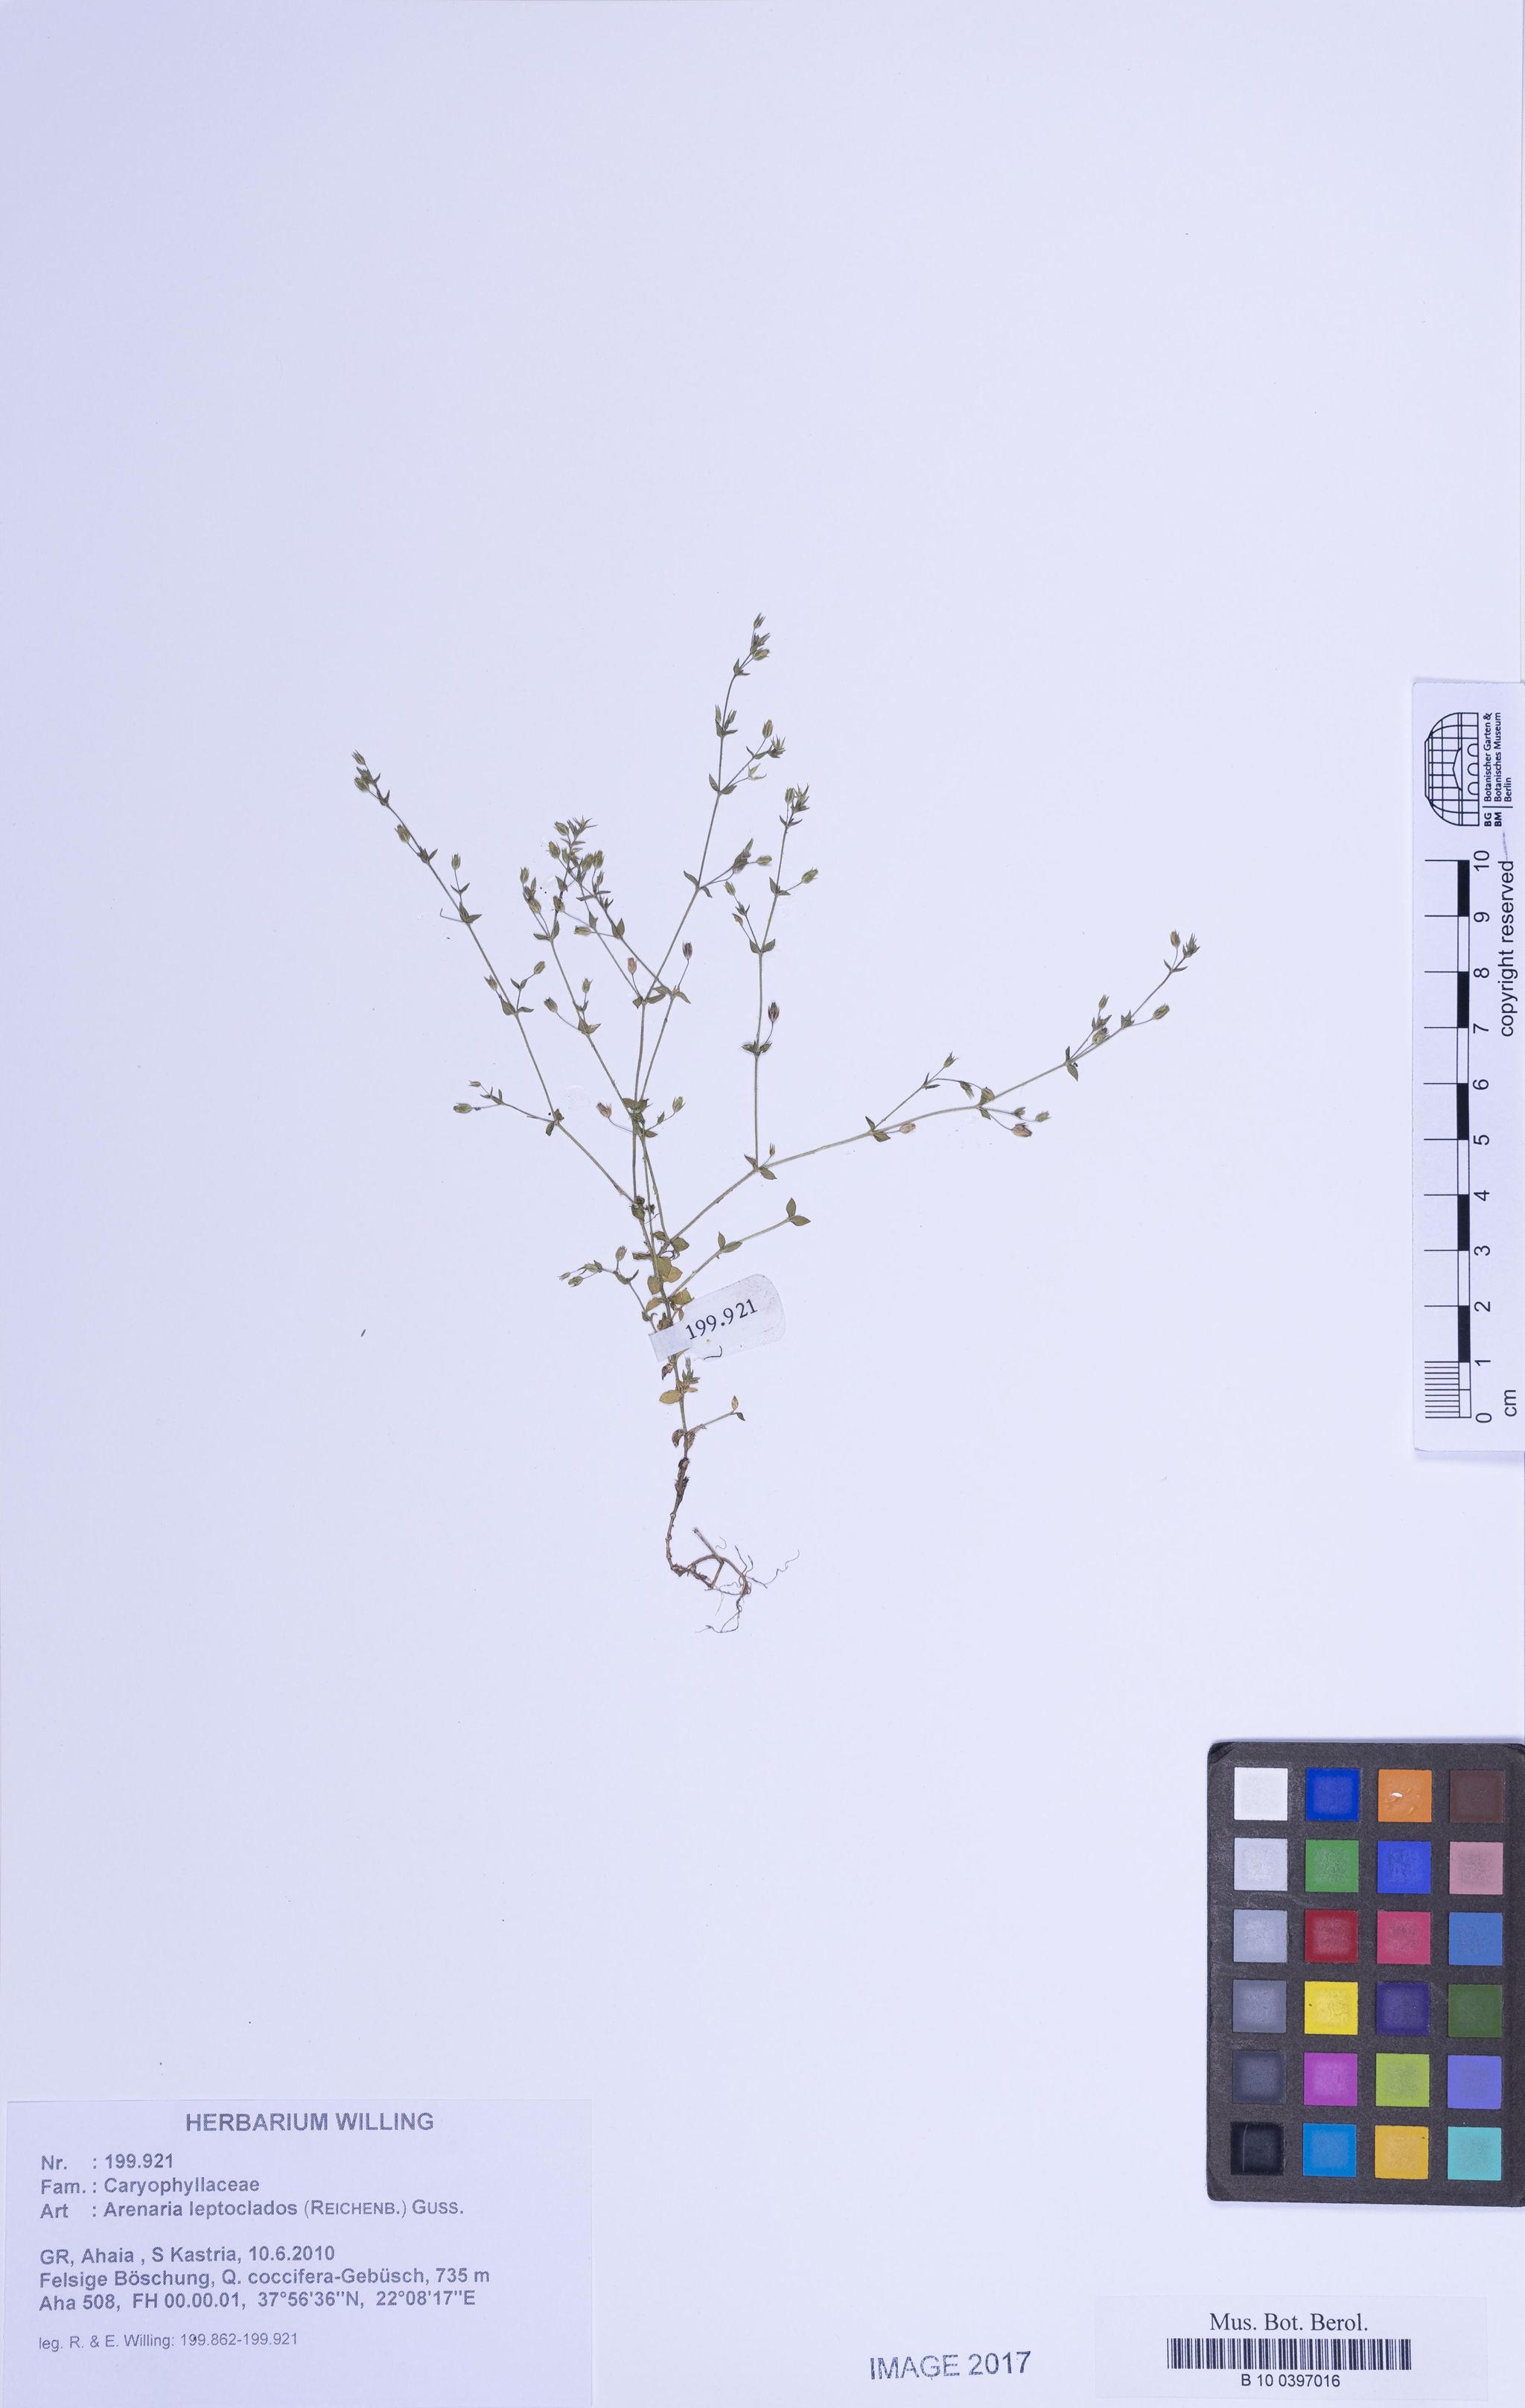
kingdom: Plantae
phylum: Tracheophyta
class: Magnoliopsida
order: Caryophyllales
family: Caryophyllaceae
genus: Arenaria
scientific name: Arenaria leptoclados
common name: Thyme-leaved sandwort
